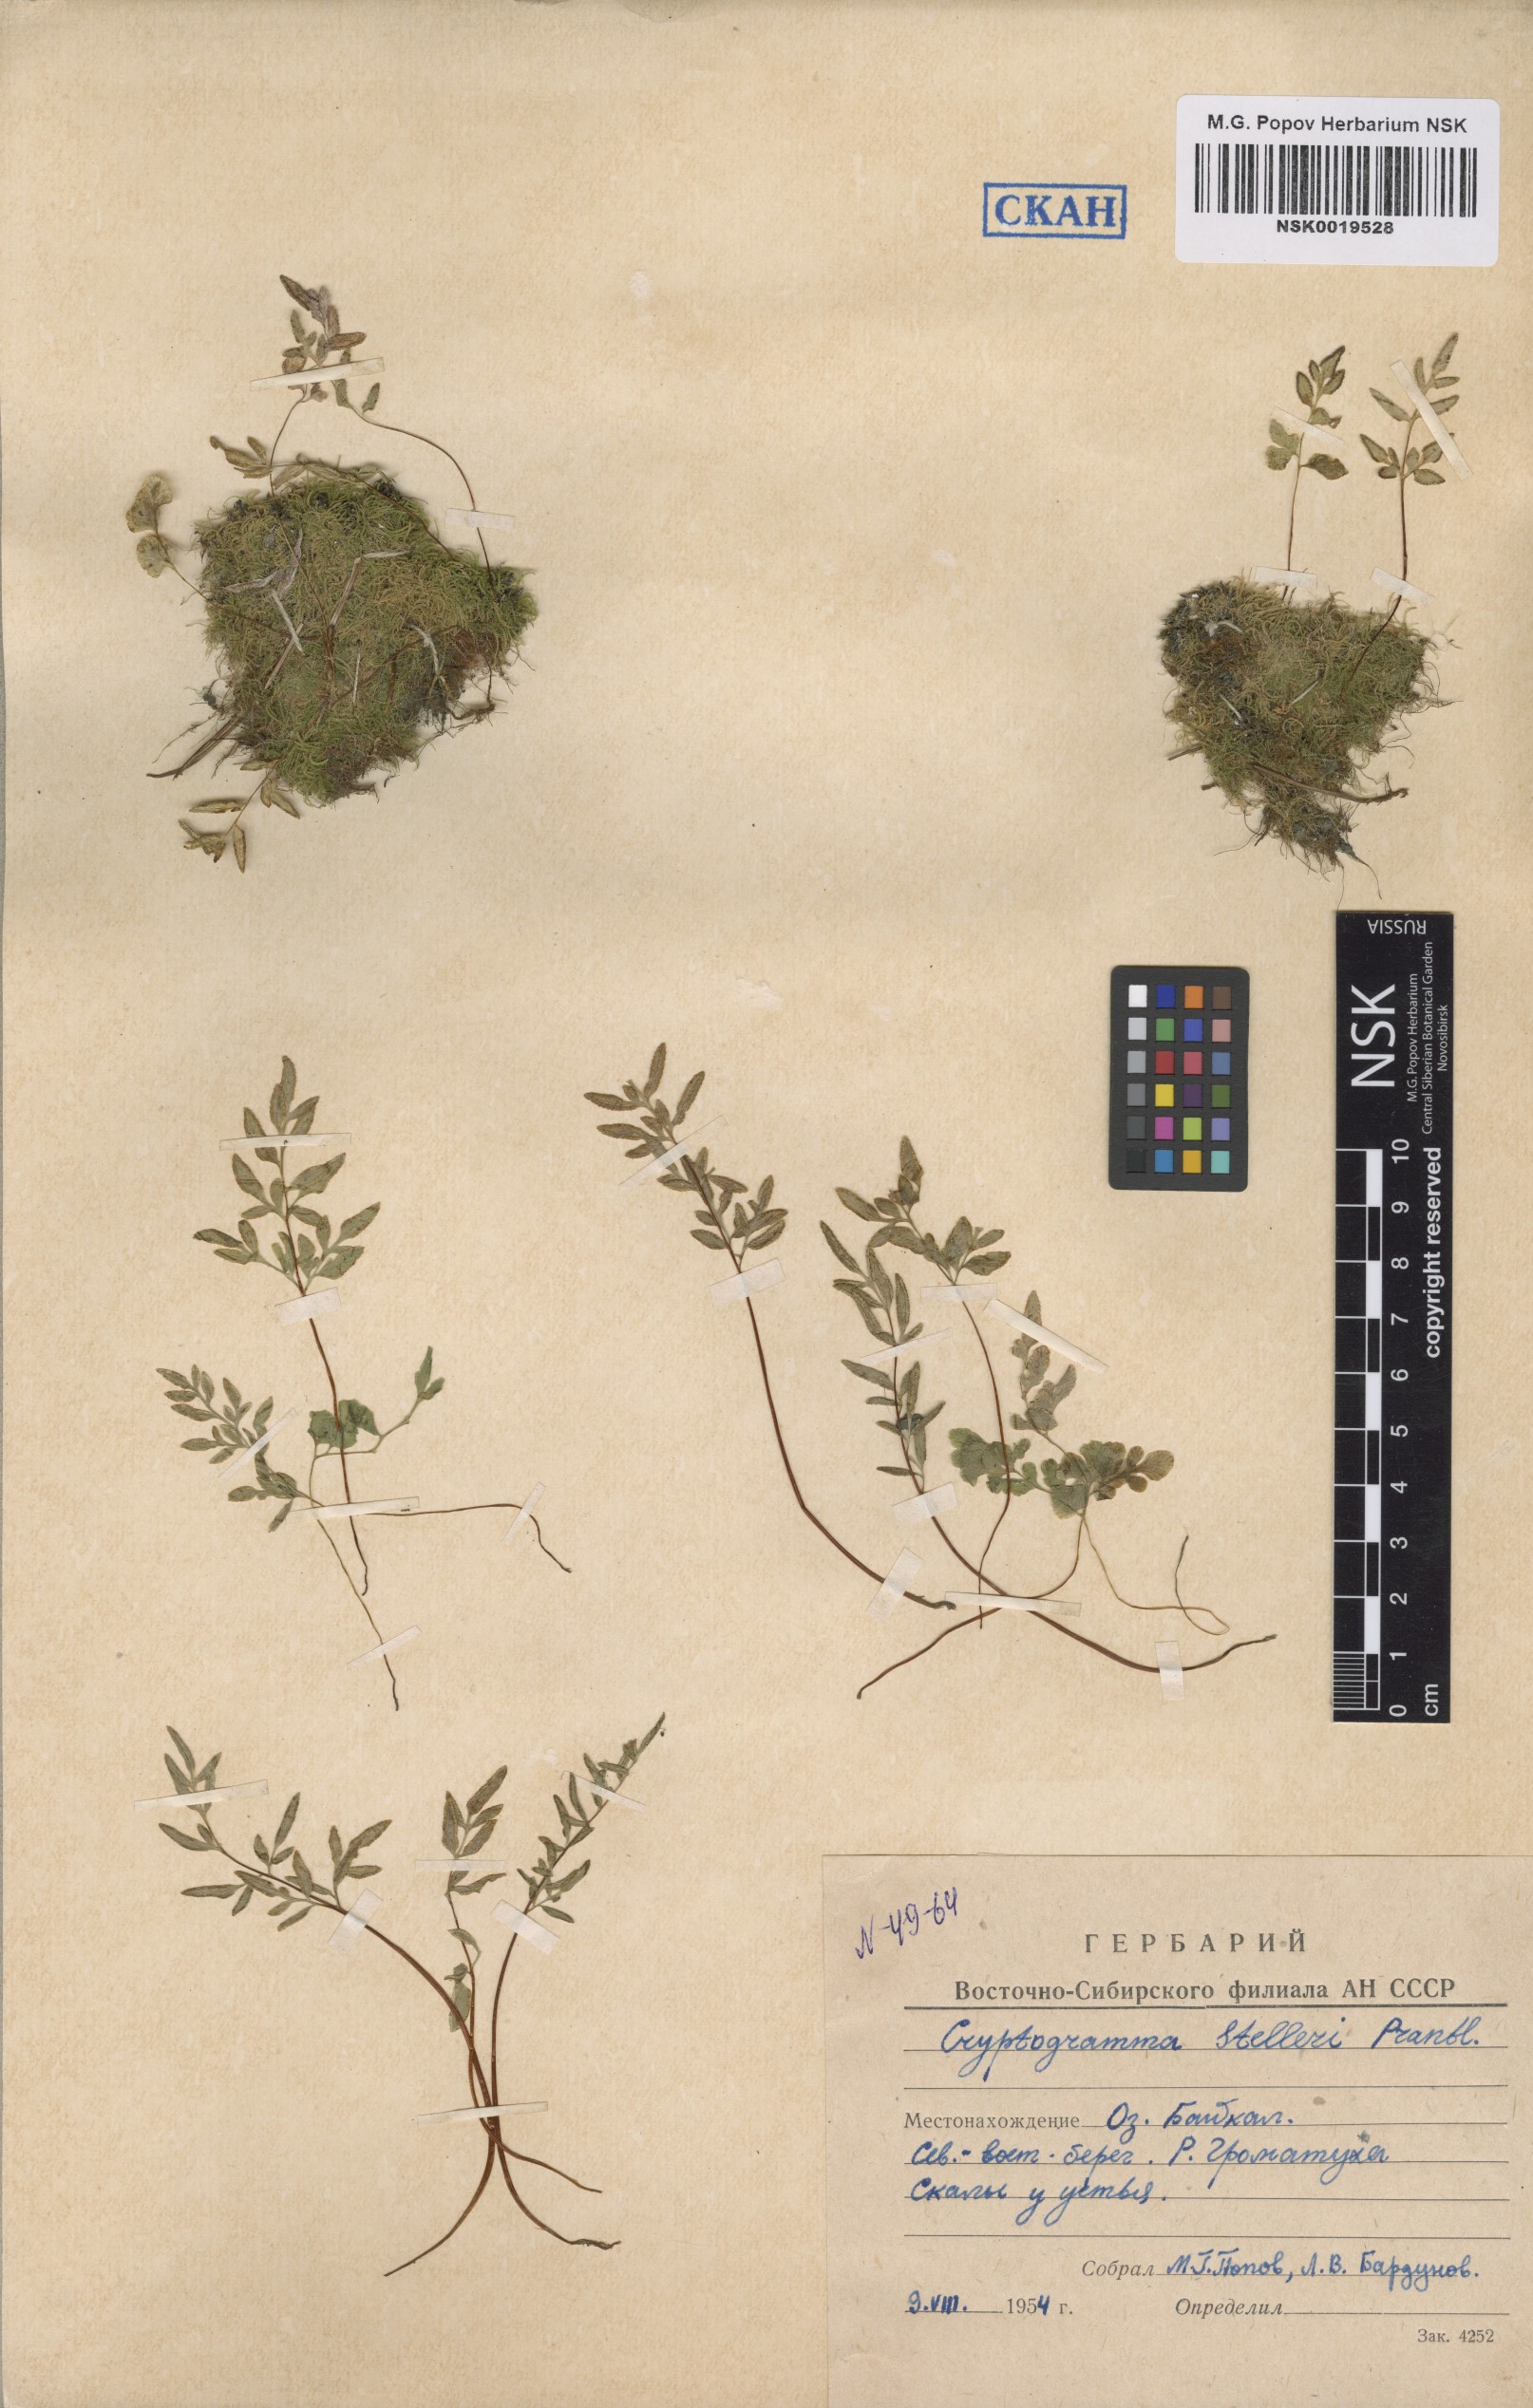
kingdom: Plantae
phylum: Tracheophyta
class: Polypodiopsida
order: Polypodiales
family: Pteridaceae
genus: Cryptogramma
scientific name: Cryptogramma stelleri
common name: Cliff-brake
